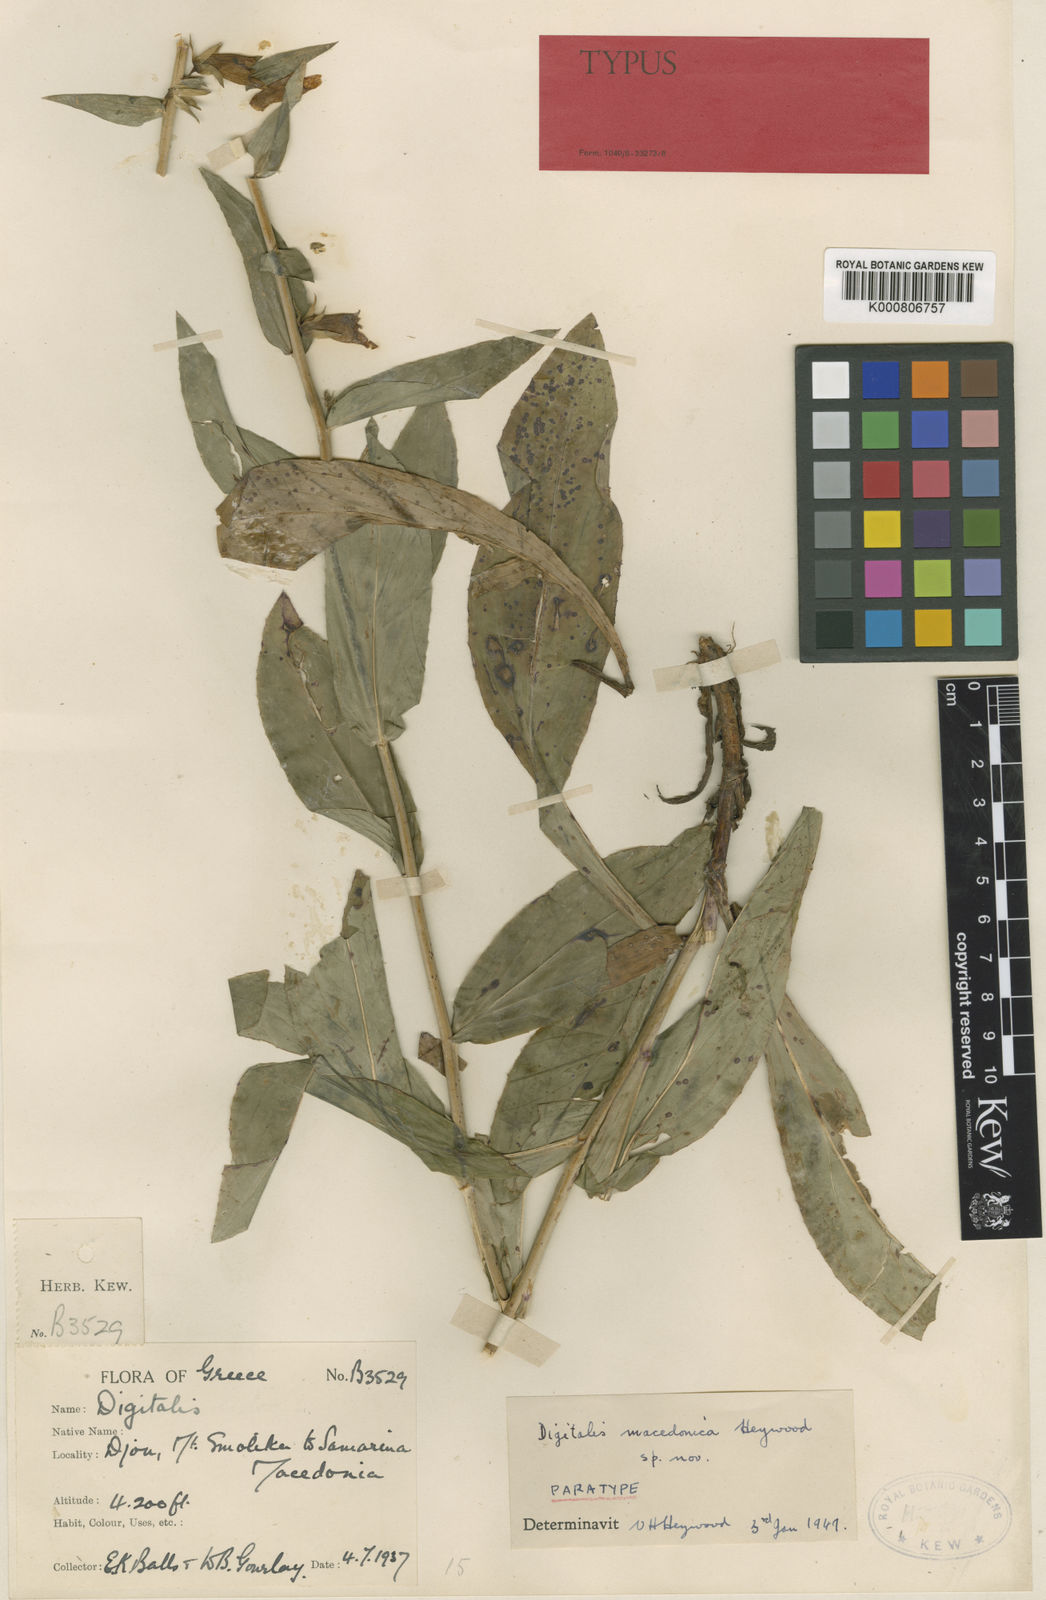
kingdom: Plantae
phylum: Tracheophyta
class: Magnoliopsida
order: Lamiales
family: Plantaginaceae
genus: Digitalis
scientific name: Digitalis macedonica
